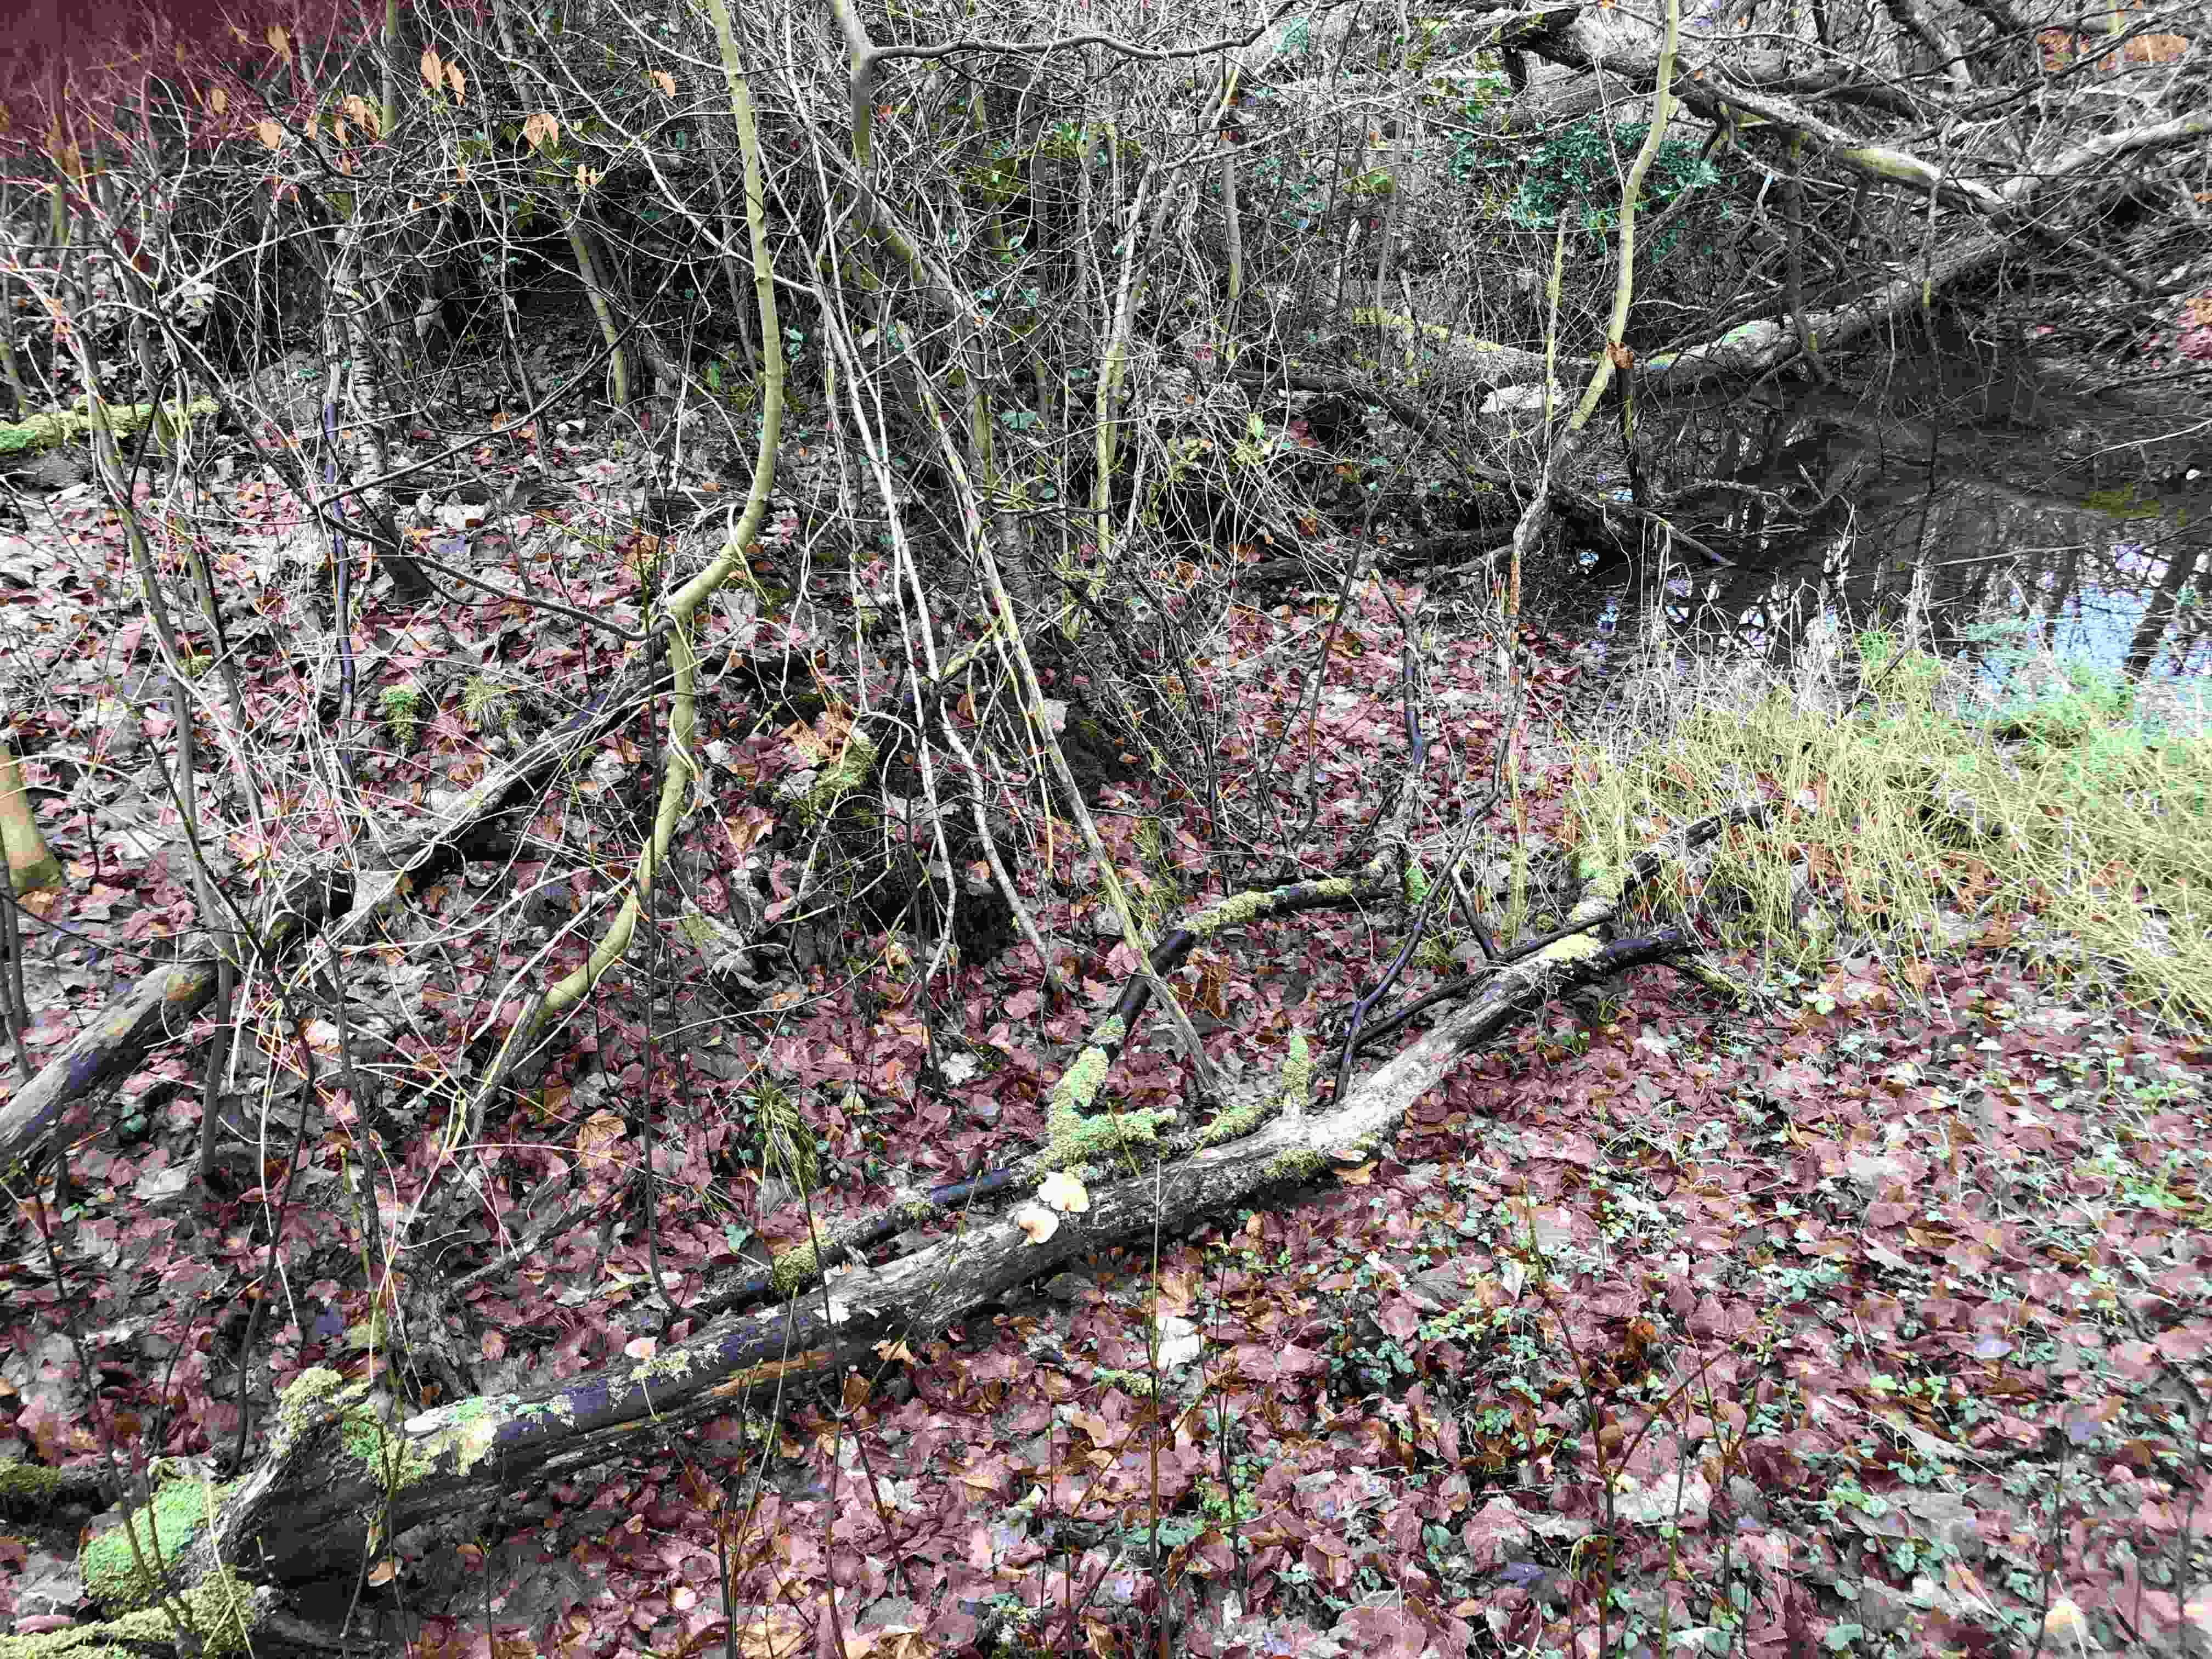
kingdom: Fungi
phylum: Basidiomycota
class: Agaricomycetes
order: Agaricales
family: Sarcomyxaceae
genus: Sarcomyxa
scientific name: Sarcomyxa serotina
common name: gummihat
